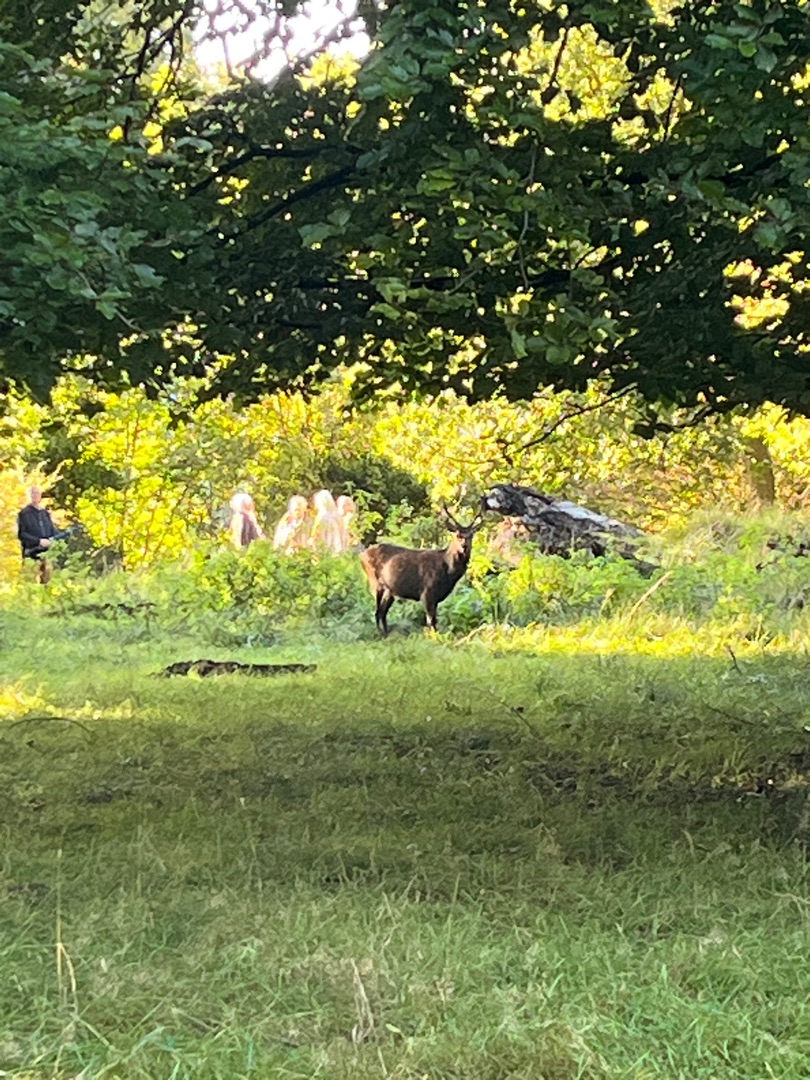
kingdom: Animalia
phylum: Chordata
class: Mammalia
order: Artiodactyla
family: Cervidae
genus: Cervus
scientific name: Cervus nippon
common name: Sika
